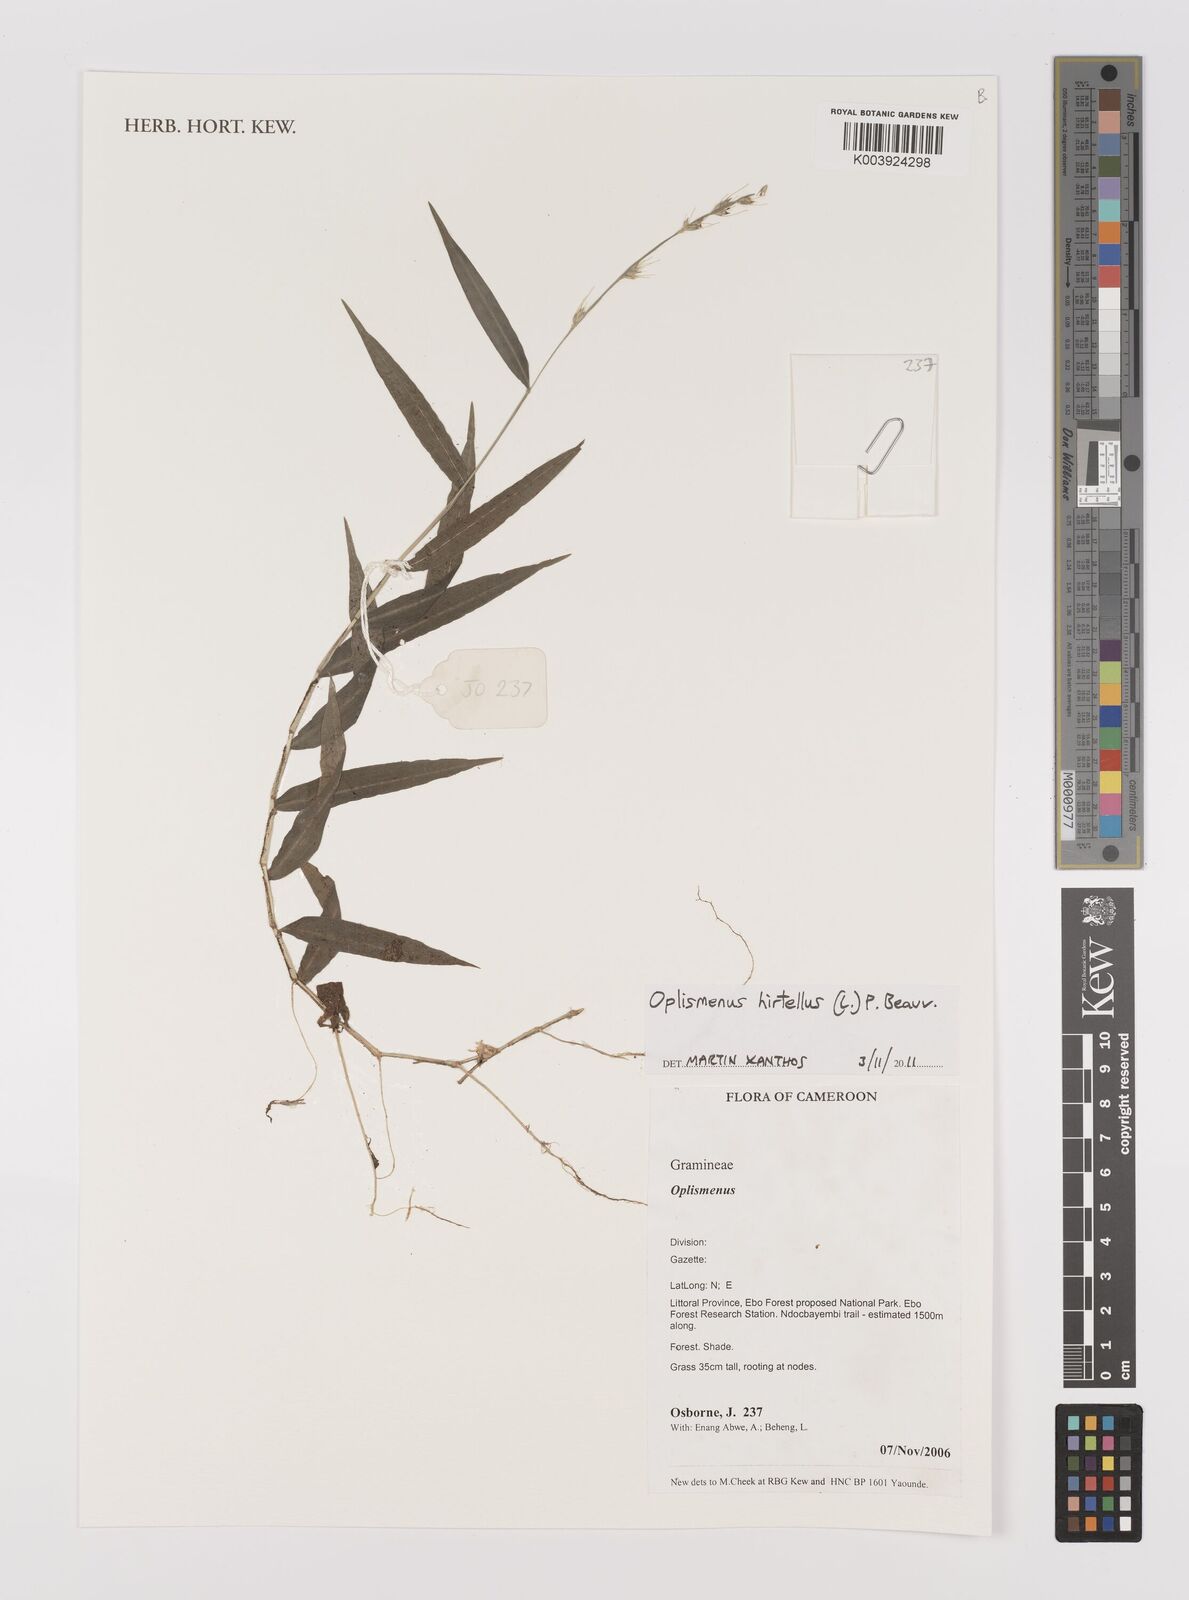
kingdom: Plantae
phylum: Tracheophyta
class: Liliopsida
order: Poales
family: Poaceae
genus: Oplismenus
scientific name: Oplismenus hirtellus
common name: Basketgrass
